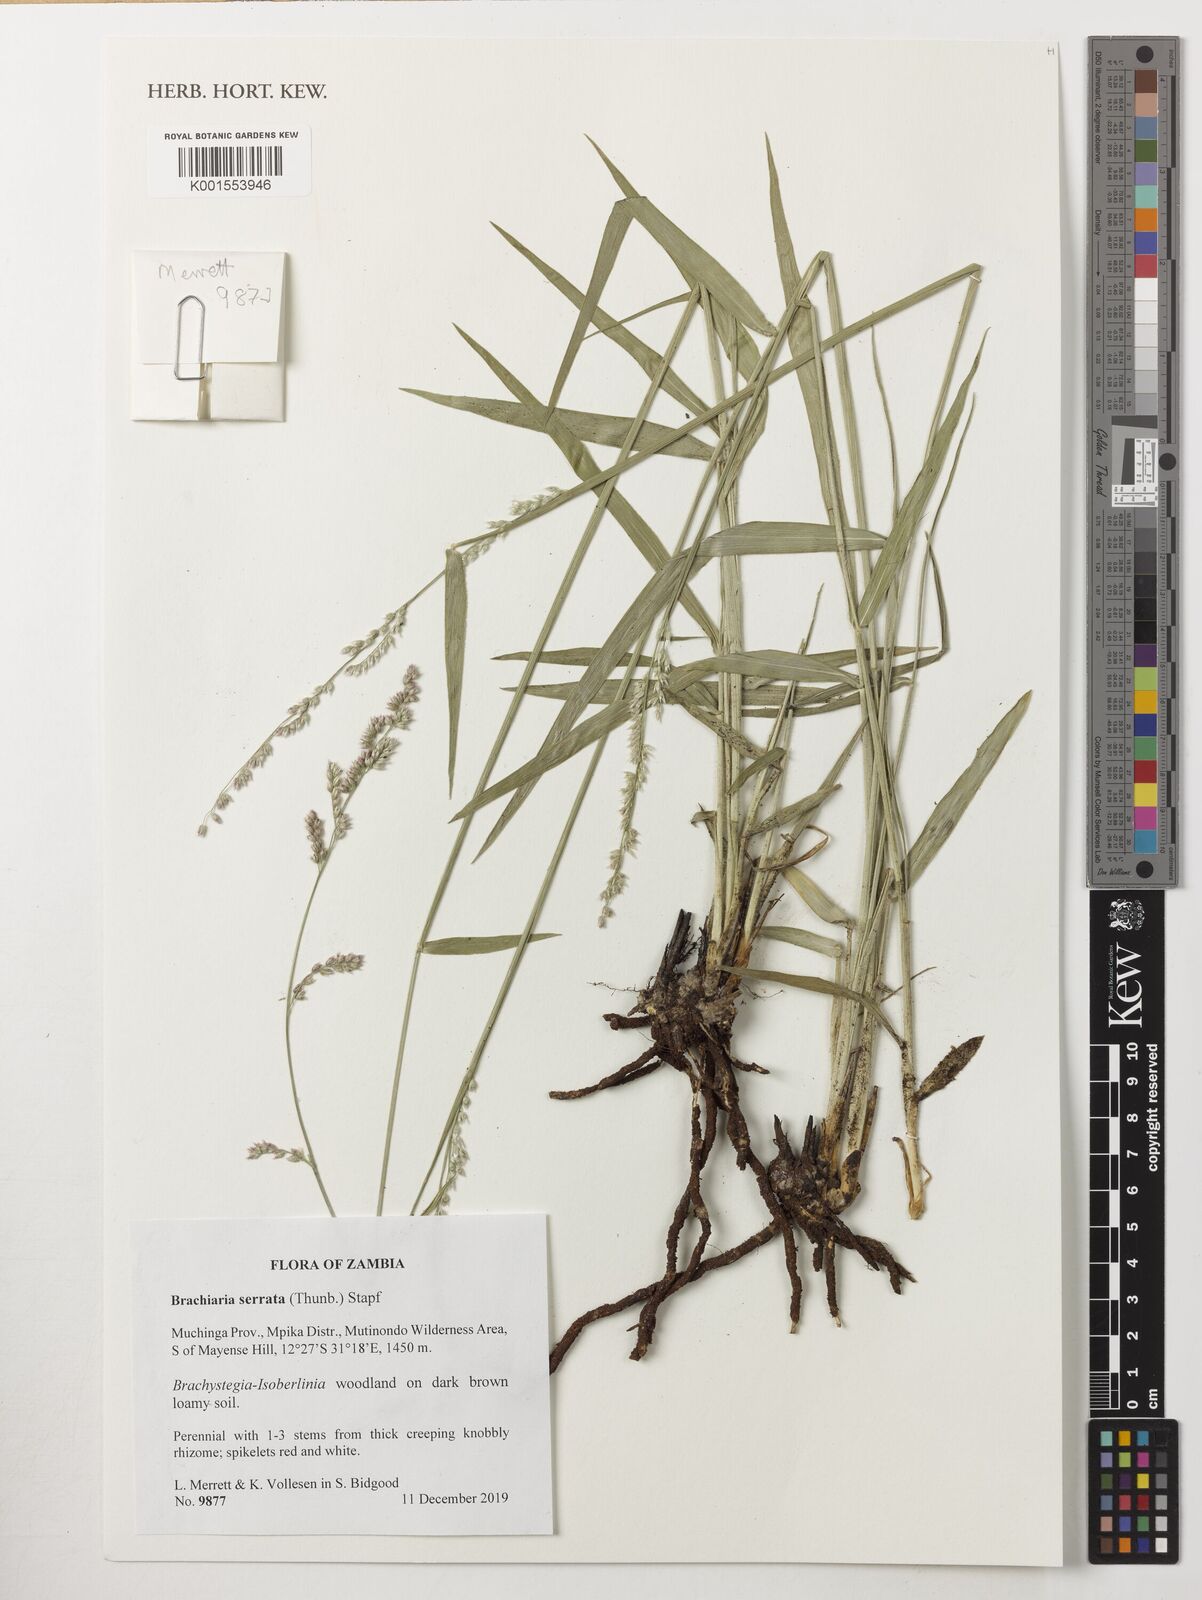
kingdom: Plantae
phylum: Tracheophyta
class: Liliopsida
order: Poales
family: Poaceae
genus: Urochloa
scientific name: Urochloa serrata
